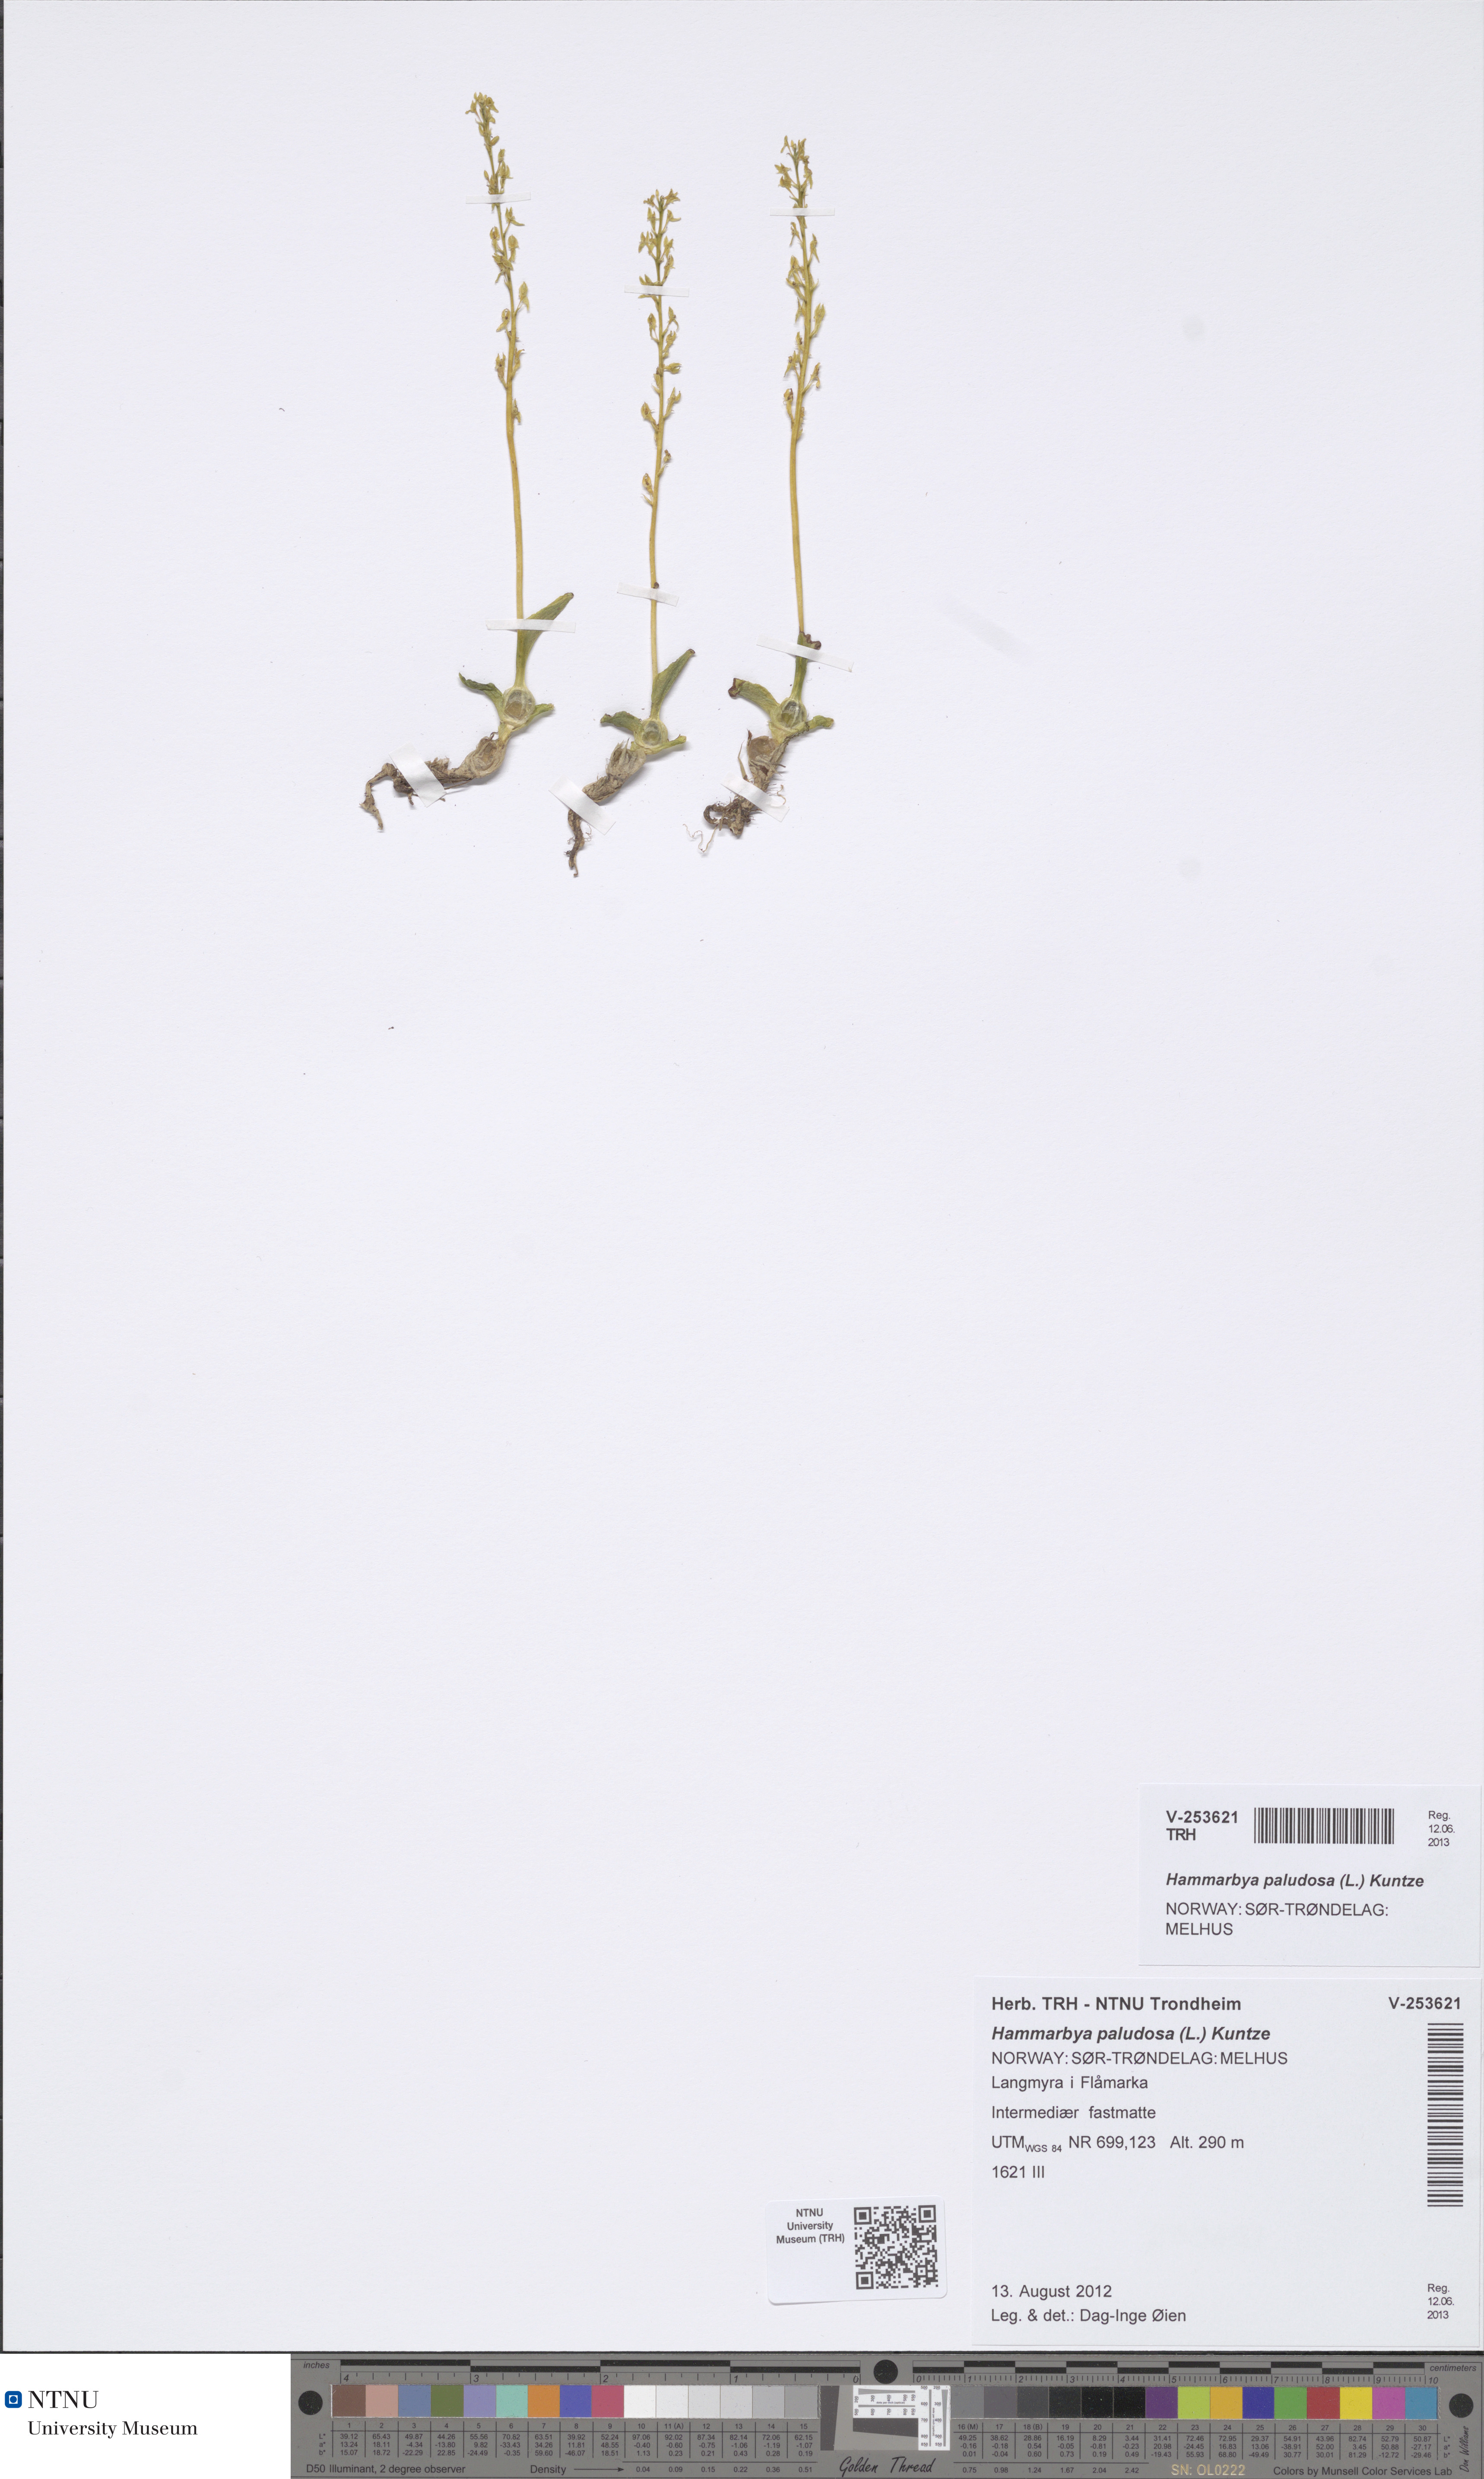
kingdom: Plantae
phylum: Tracheophyta
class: Liliopsida
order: Asparagales
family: Orchidaceae
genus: Hammarbya
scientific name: Hammarbya paludosa
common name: Bog orchid
